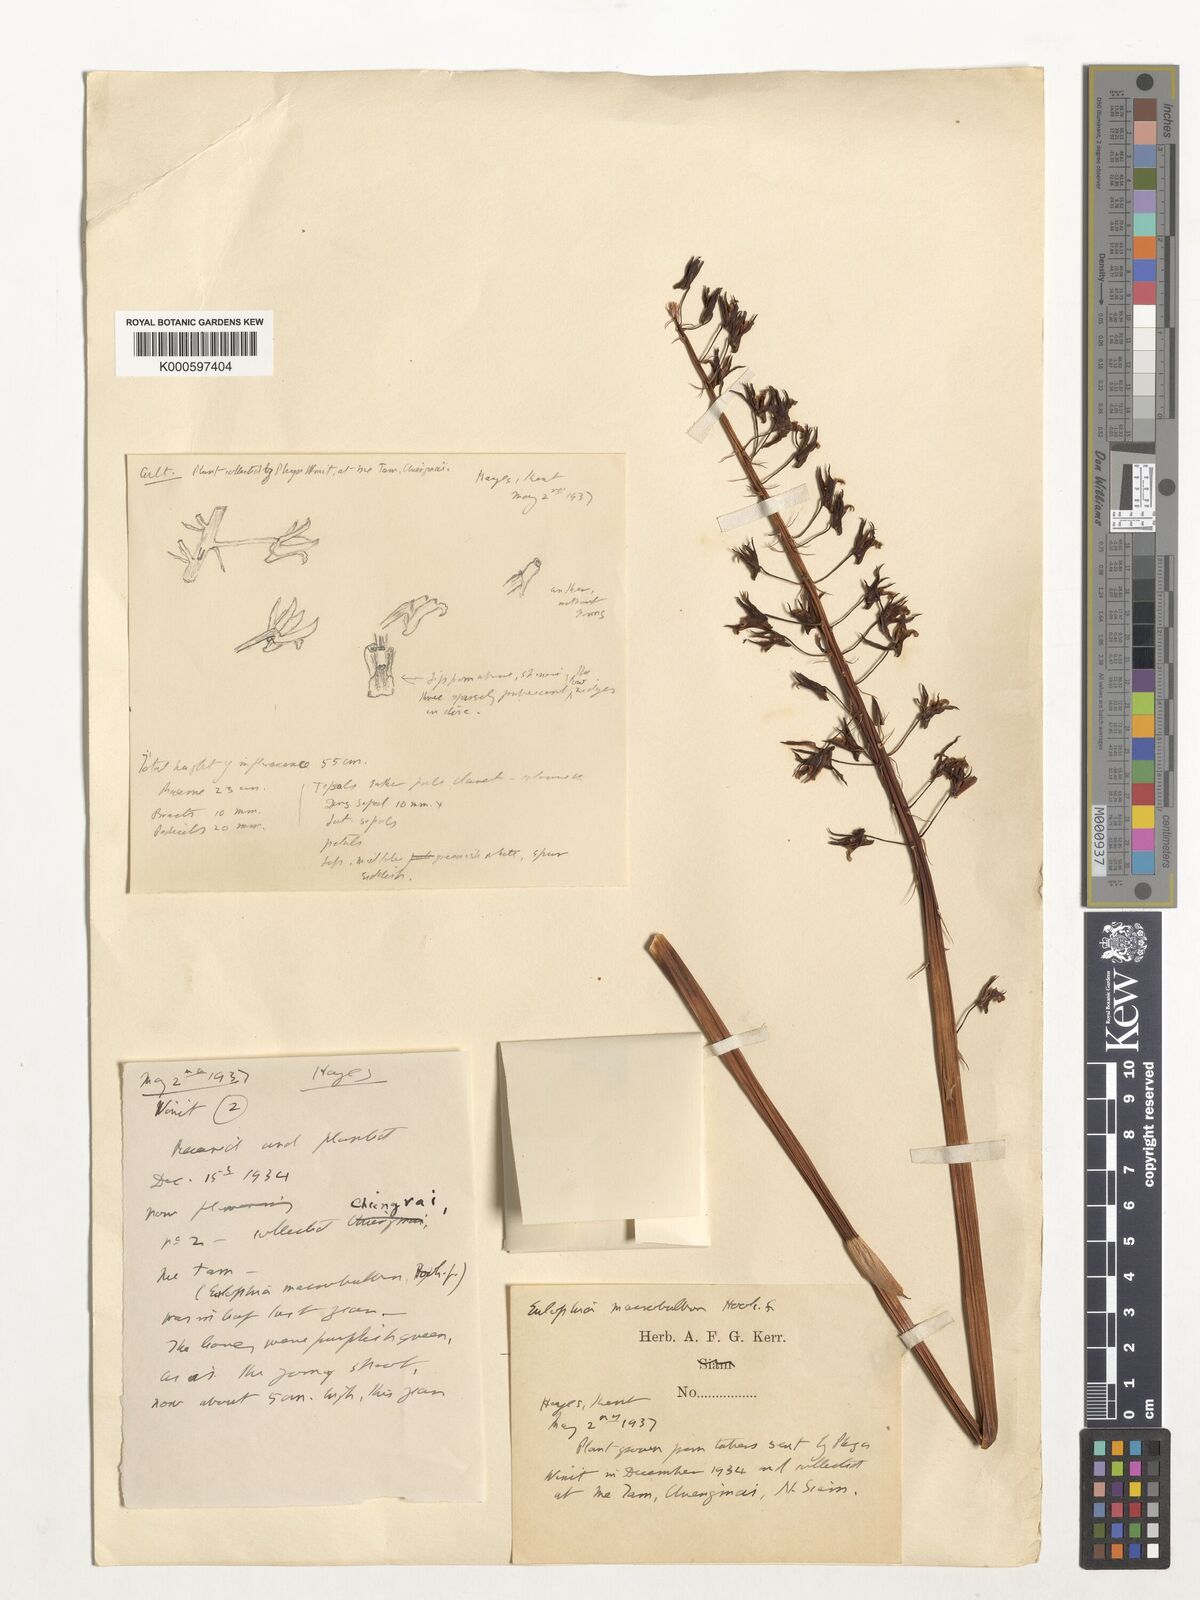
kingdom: Plantae
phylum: Tracheophyta
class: Liliopsida
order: Asparagales
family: Orchidaceae
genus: Eulophia
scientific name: Eulophia macrobulbon
